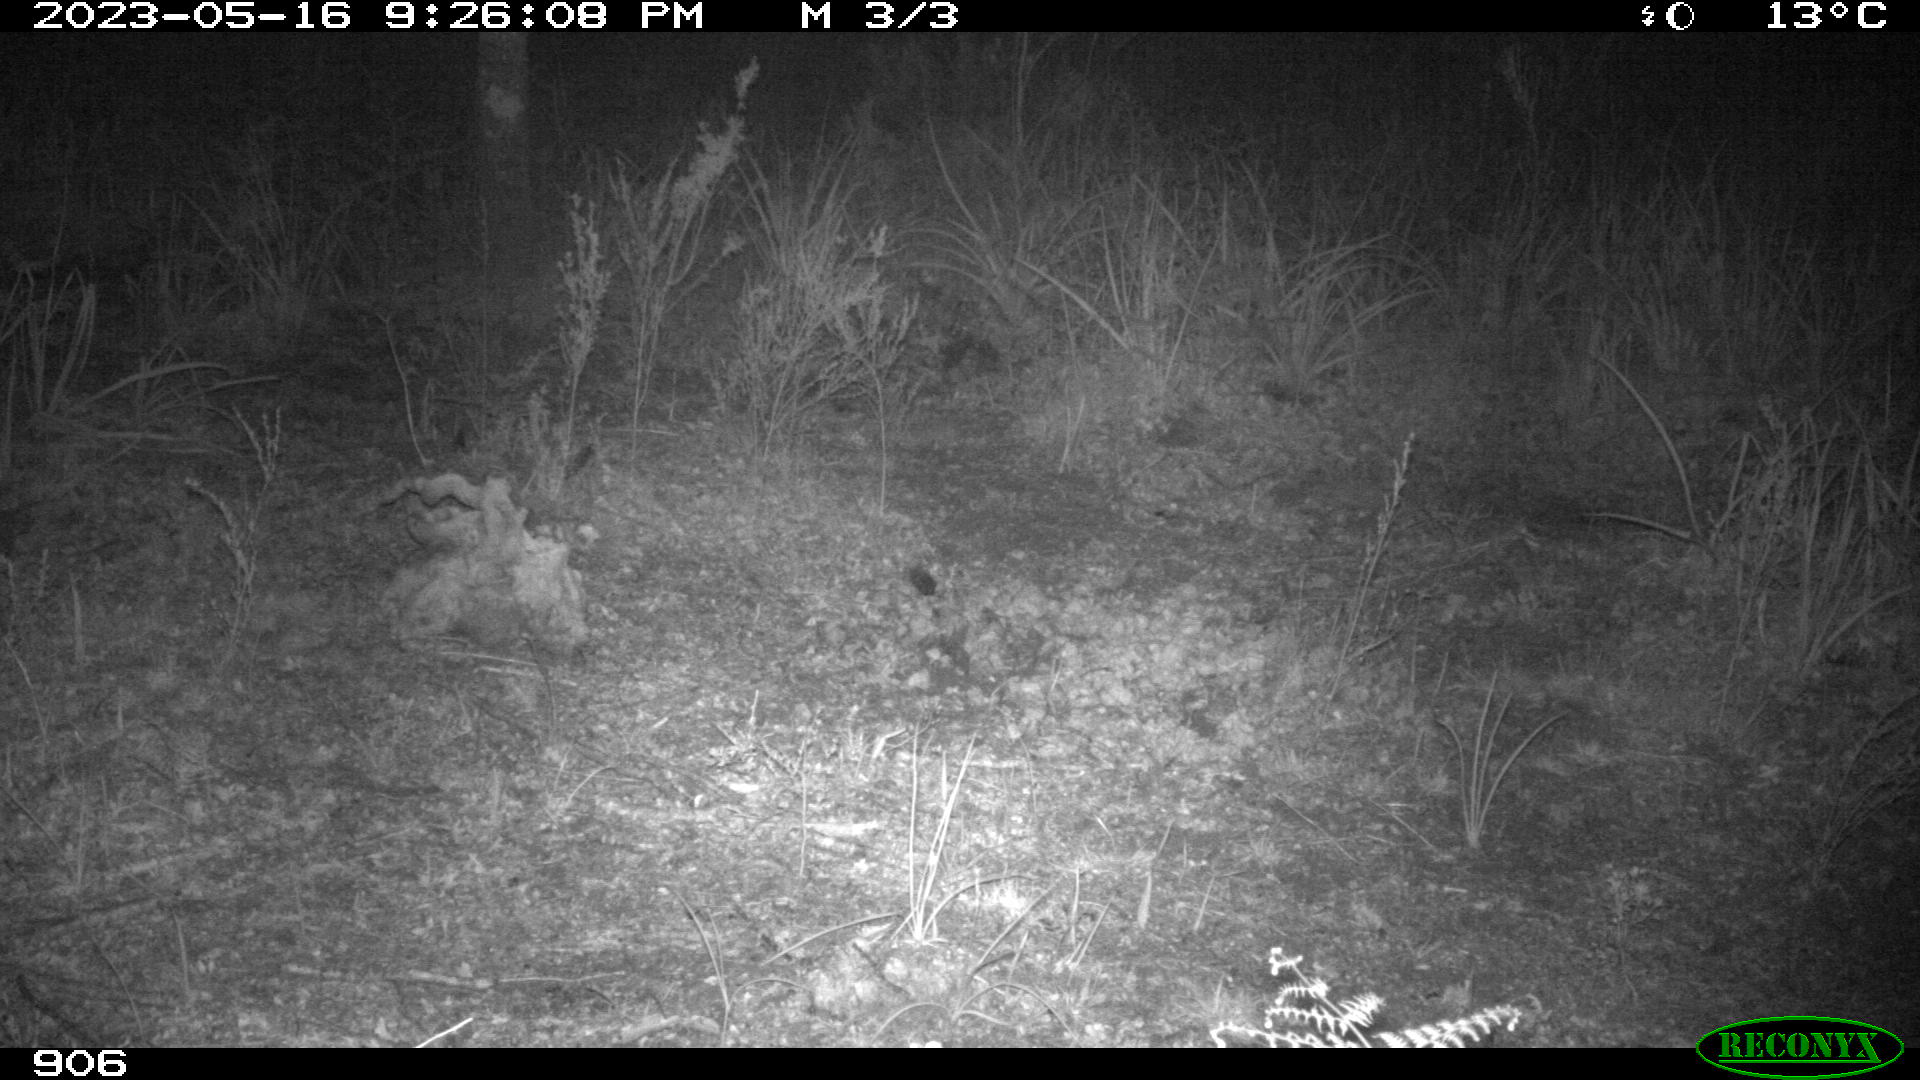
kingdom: Animalia
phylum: Chordata
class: Mammalia
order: Artiodactyla
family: Cervidae
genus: Capreolus
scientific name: Capreolus capreolus
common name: Western roe deer
